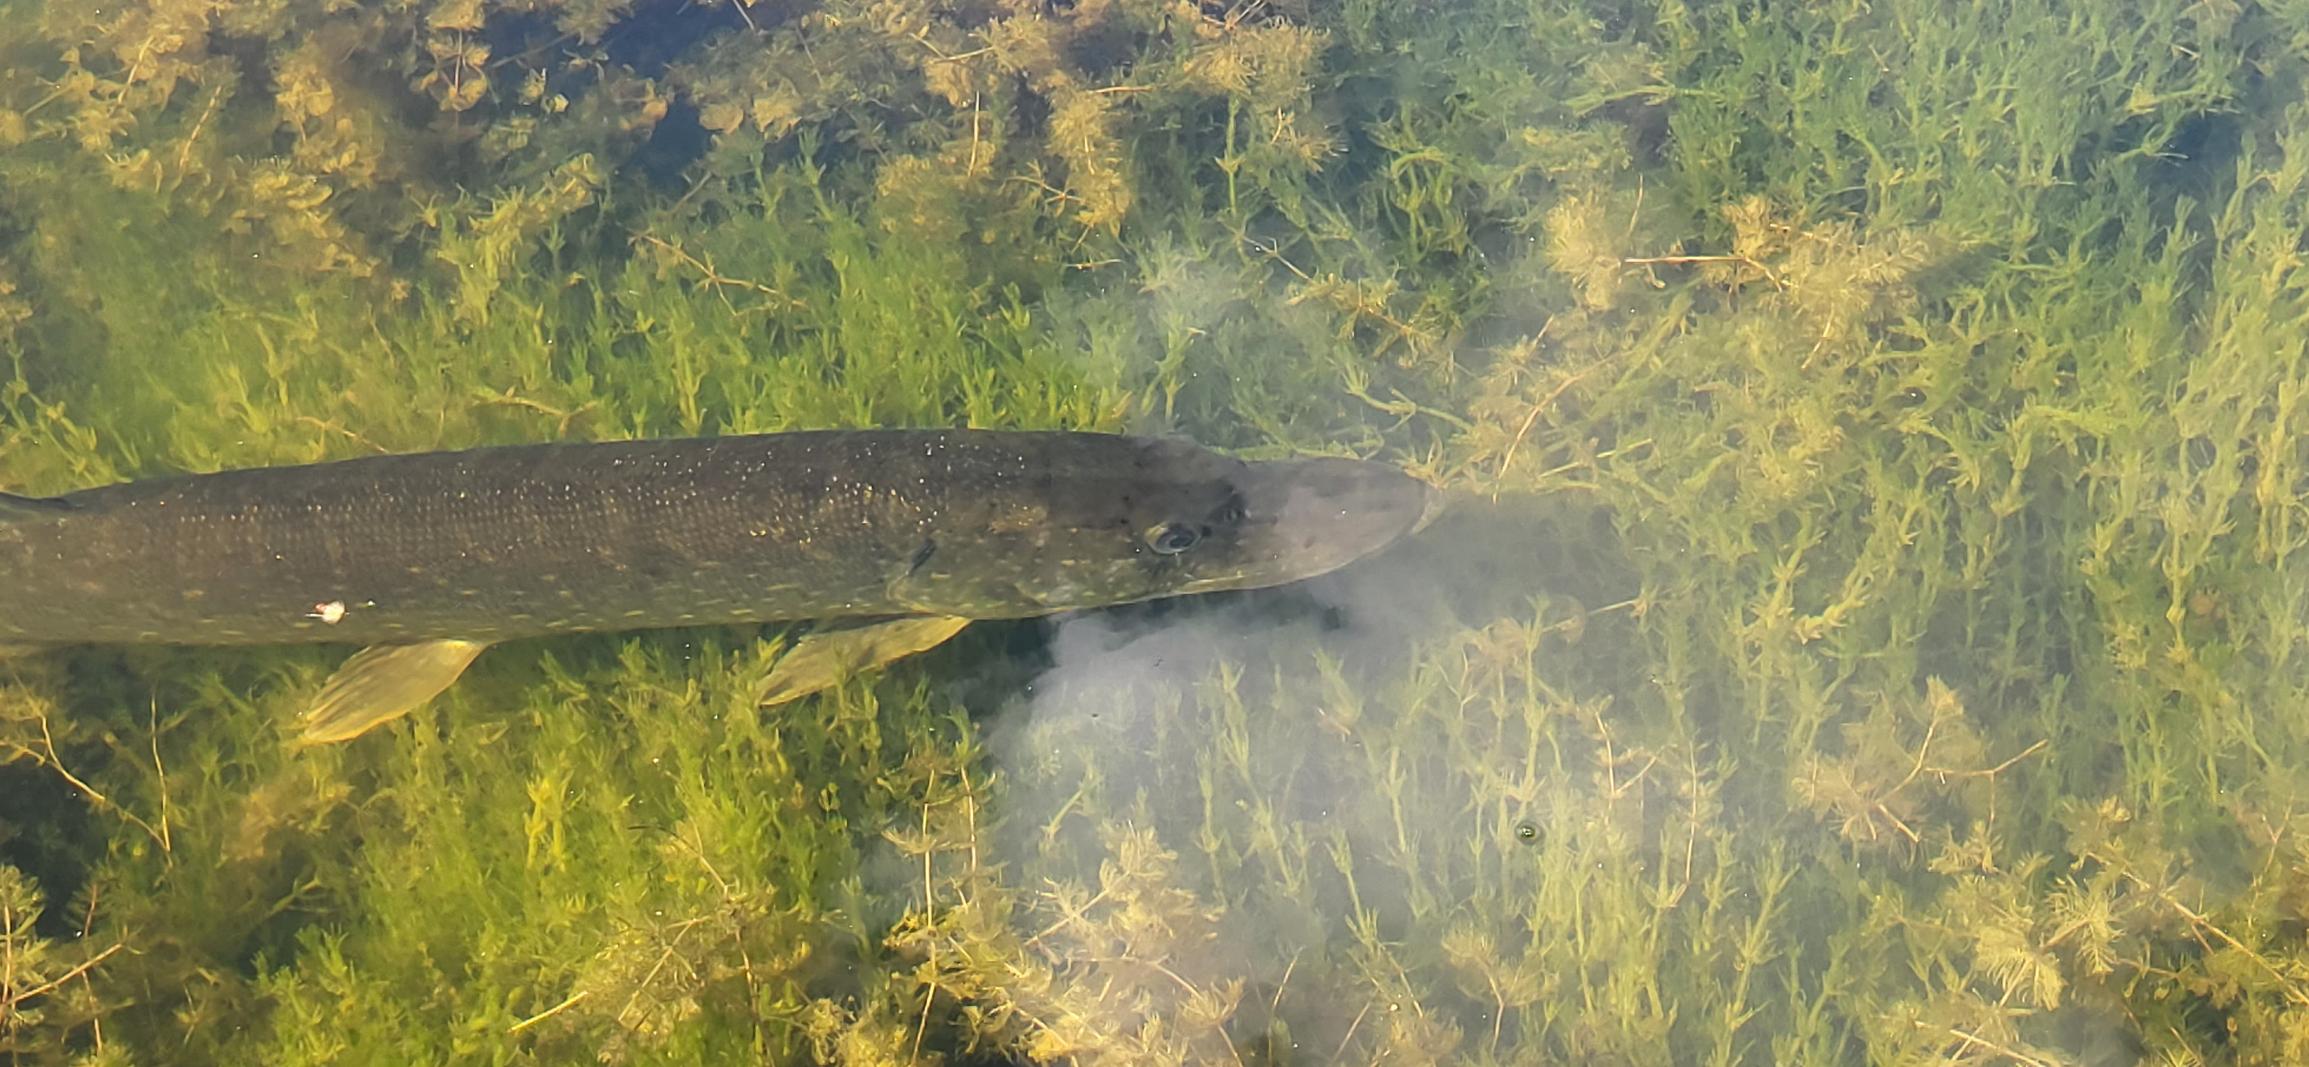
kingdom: Animalia
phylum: Chordata
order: Esociformes
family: Esocidae
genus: Esox
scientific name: Esox lucius
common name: Gedde
